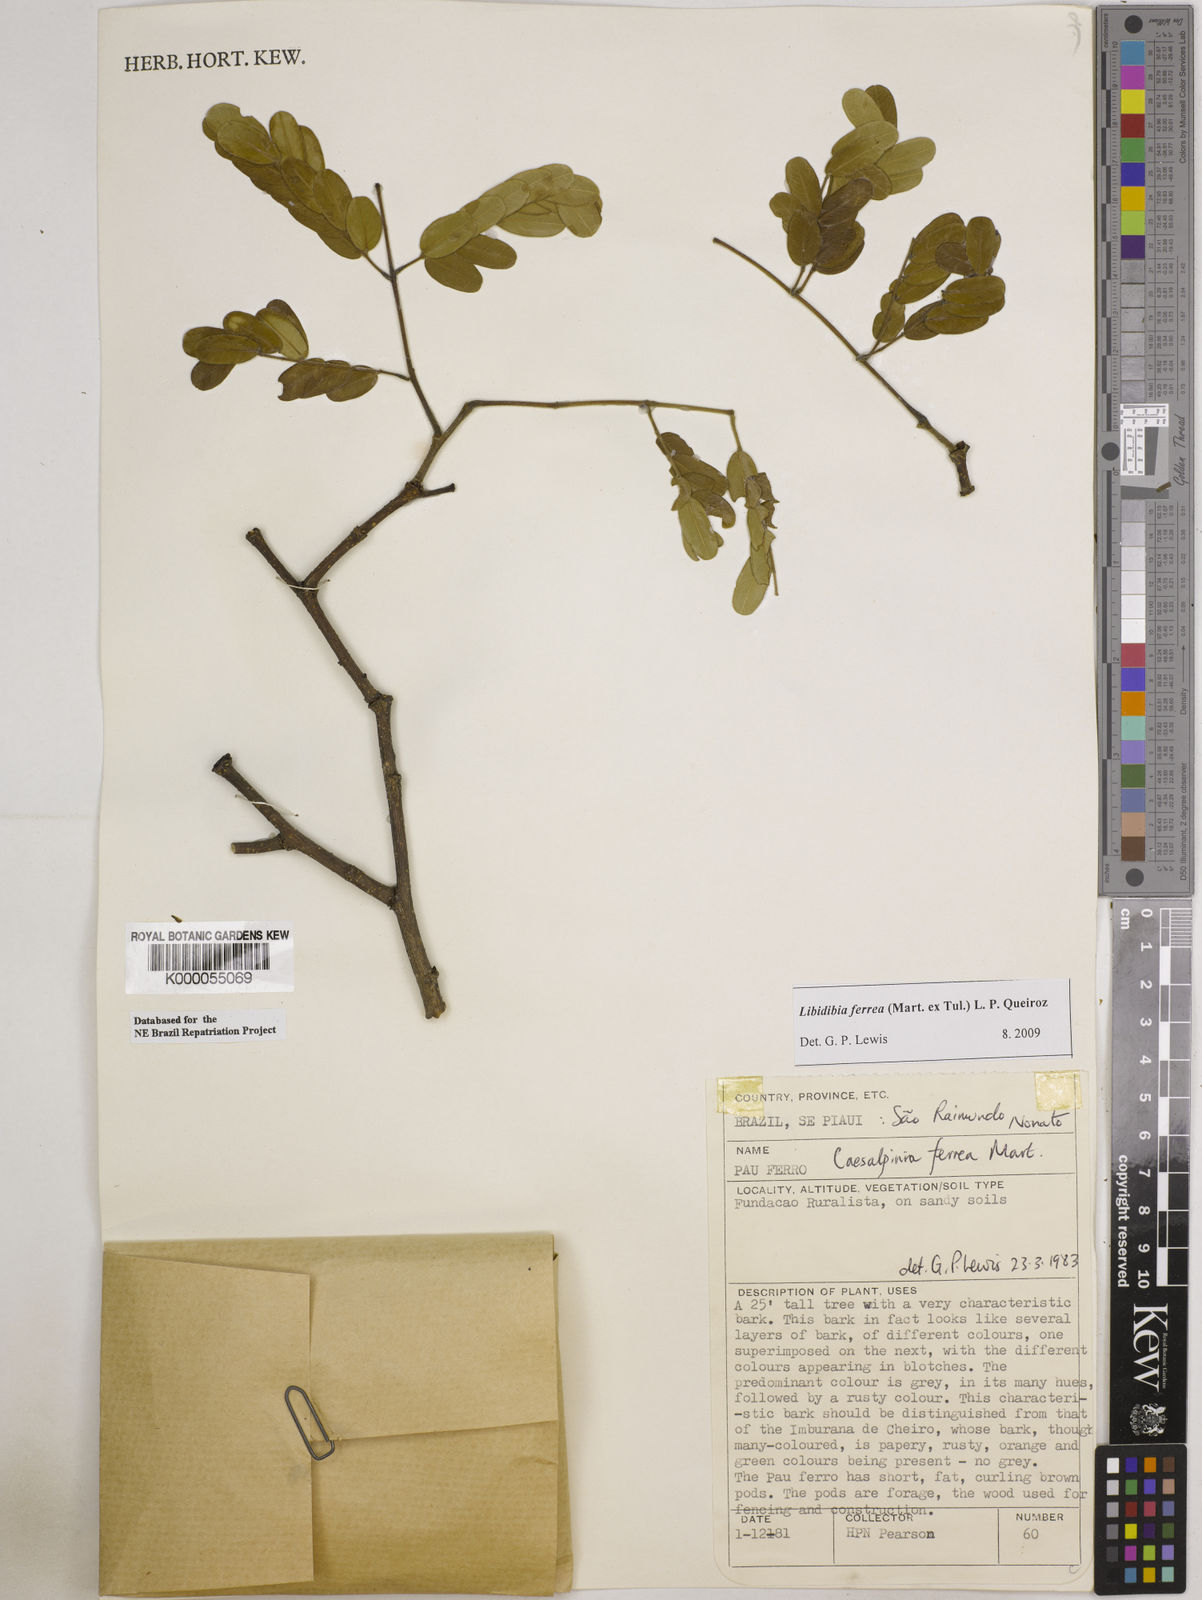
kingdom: Plantae
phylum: Tracheophyta
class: Magnoliopsida
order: Fabales
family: Fabaceae
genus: Libidibia
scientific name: Libidibia ferrea
